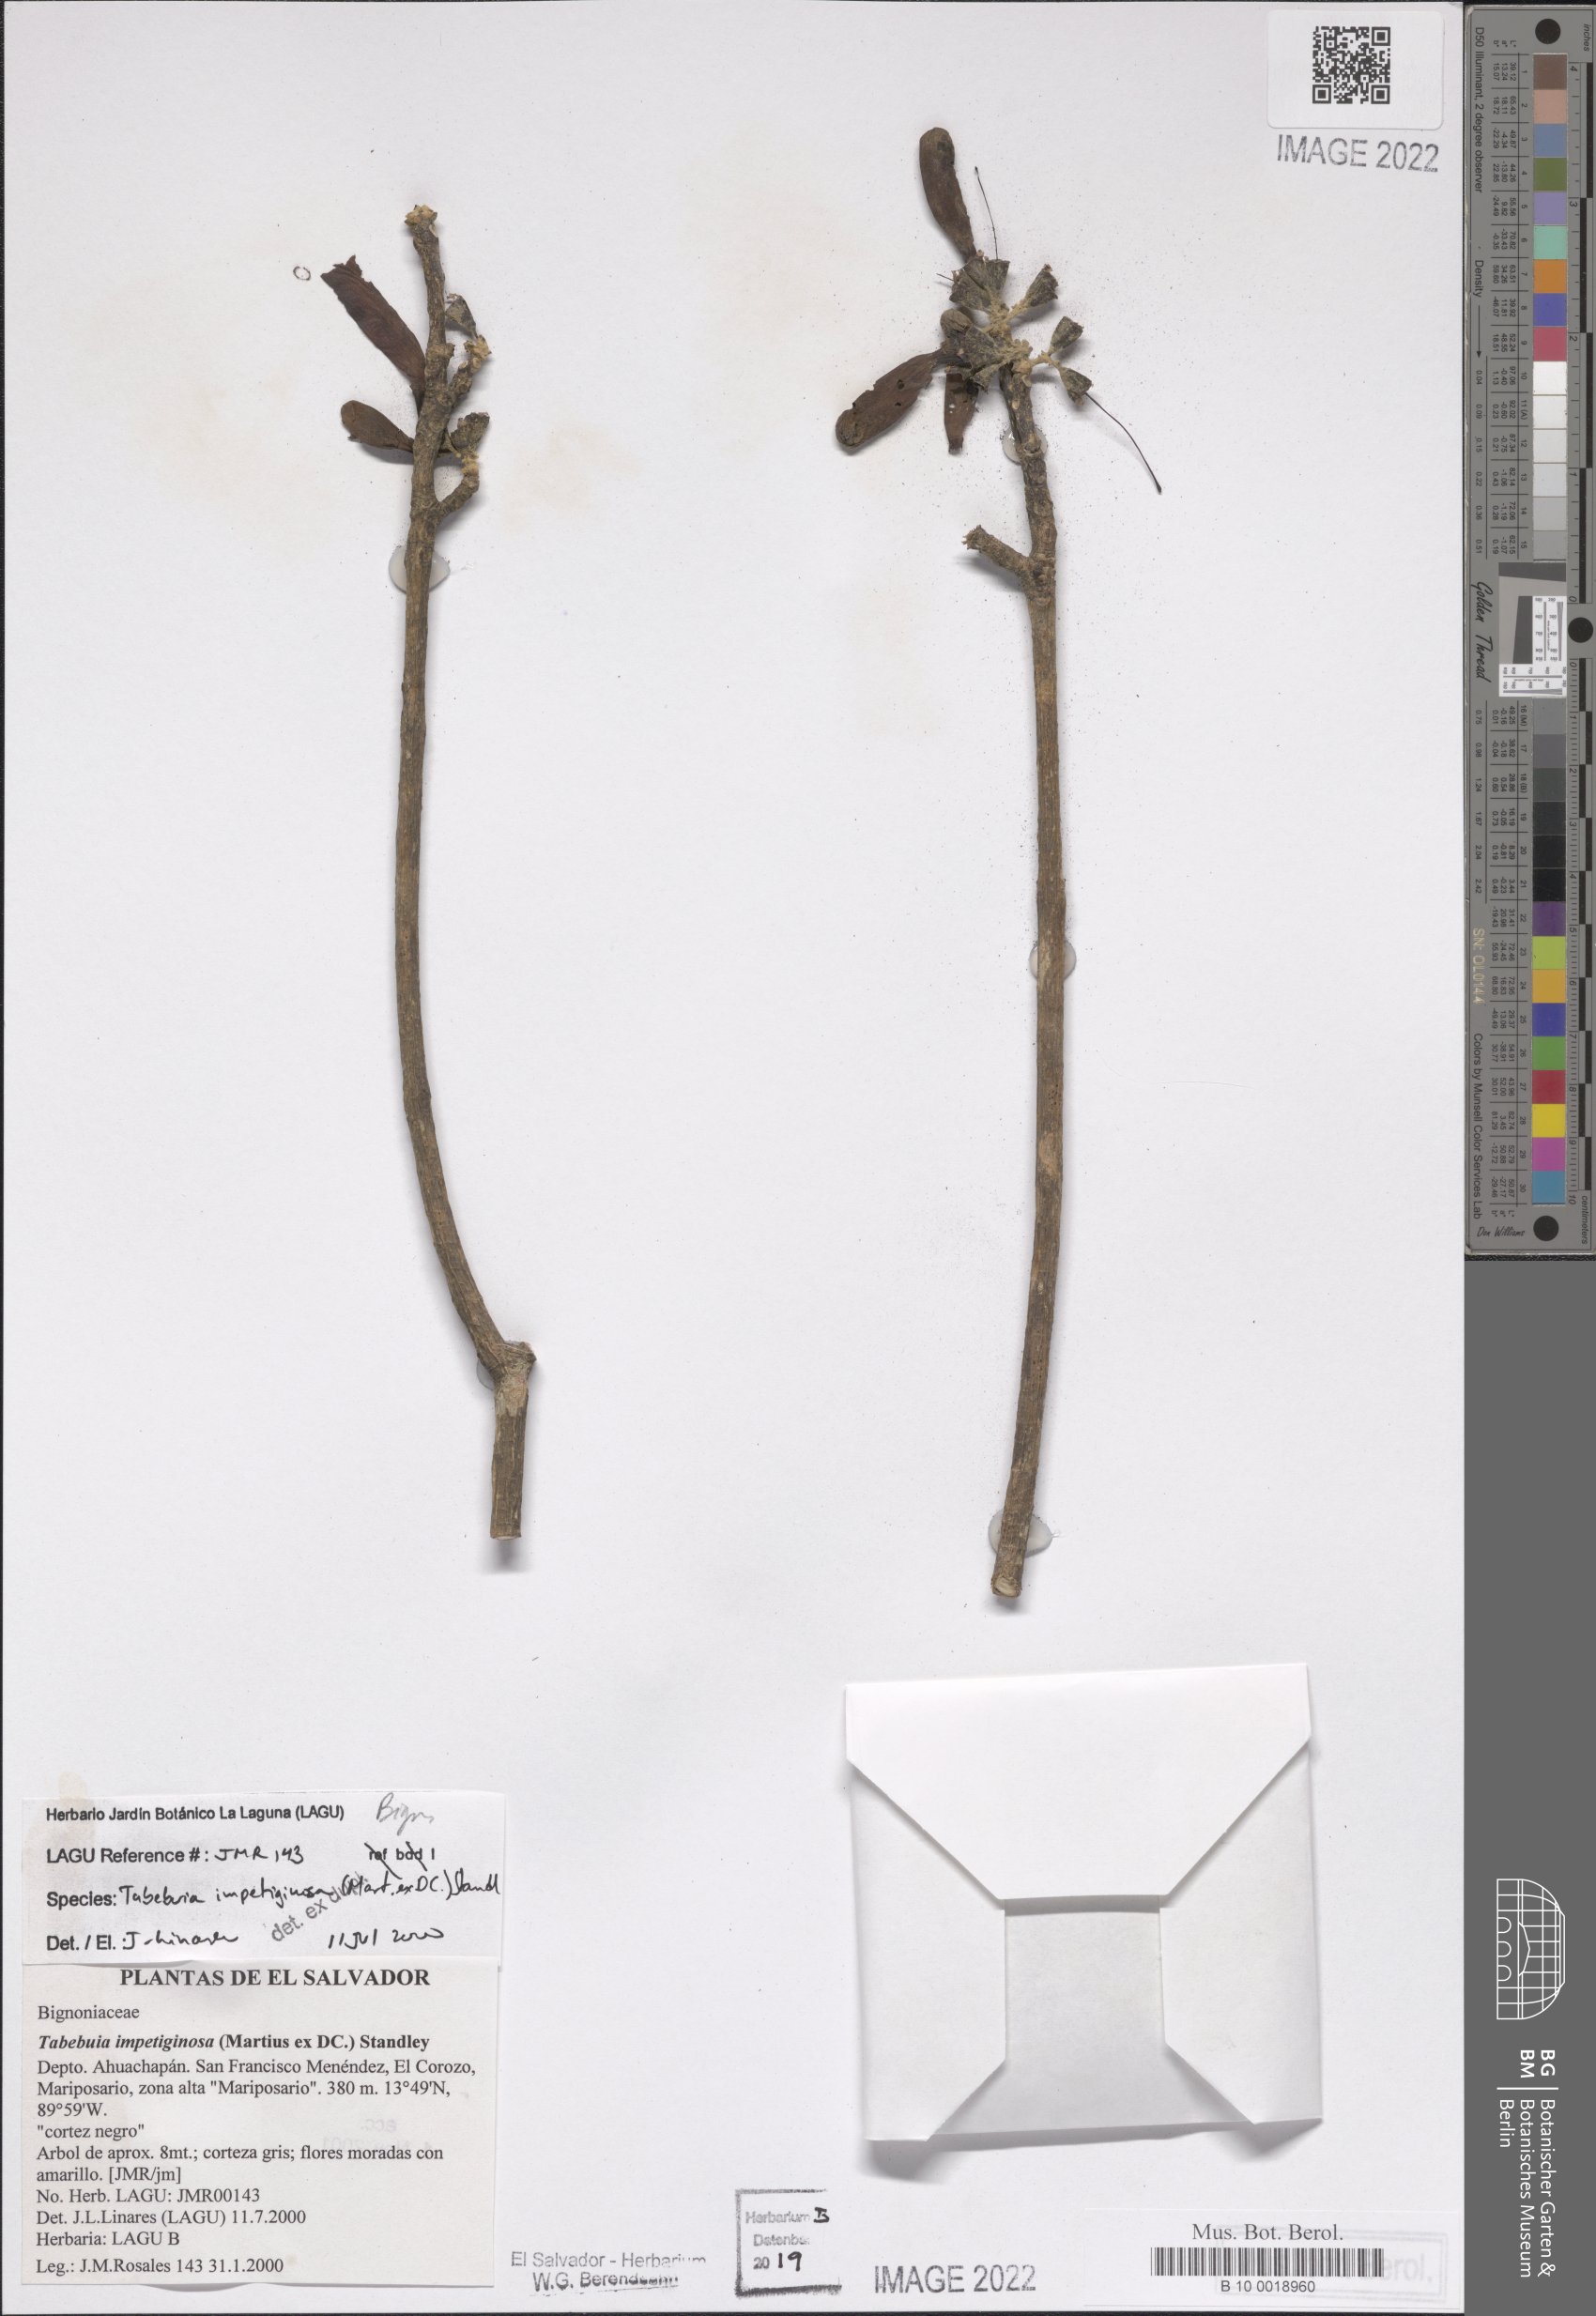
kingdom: Plantae
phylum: Tracheophyta
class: Magnoliopsida
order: Lamiales
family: Bignoniaceae
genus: Handroanthus
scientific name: Handroanthus impetiginosum
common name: Pink trumpet tree
